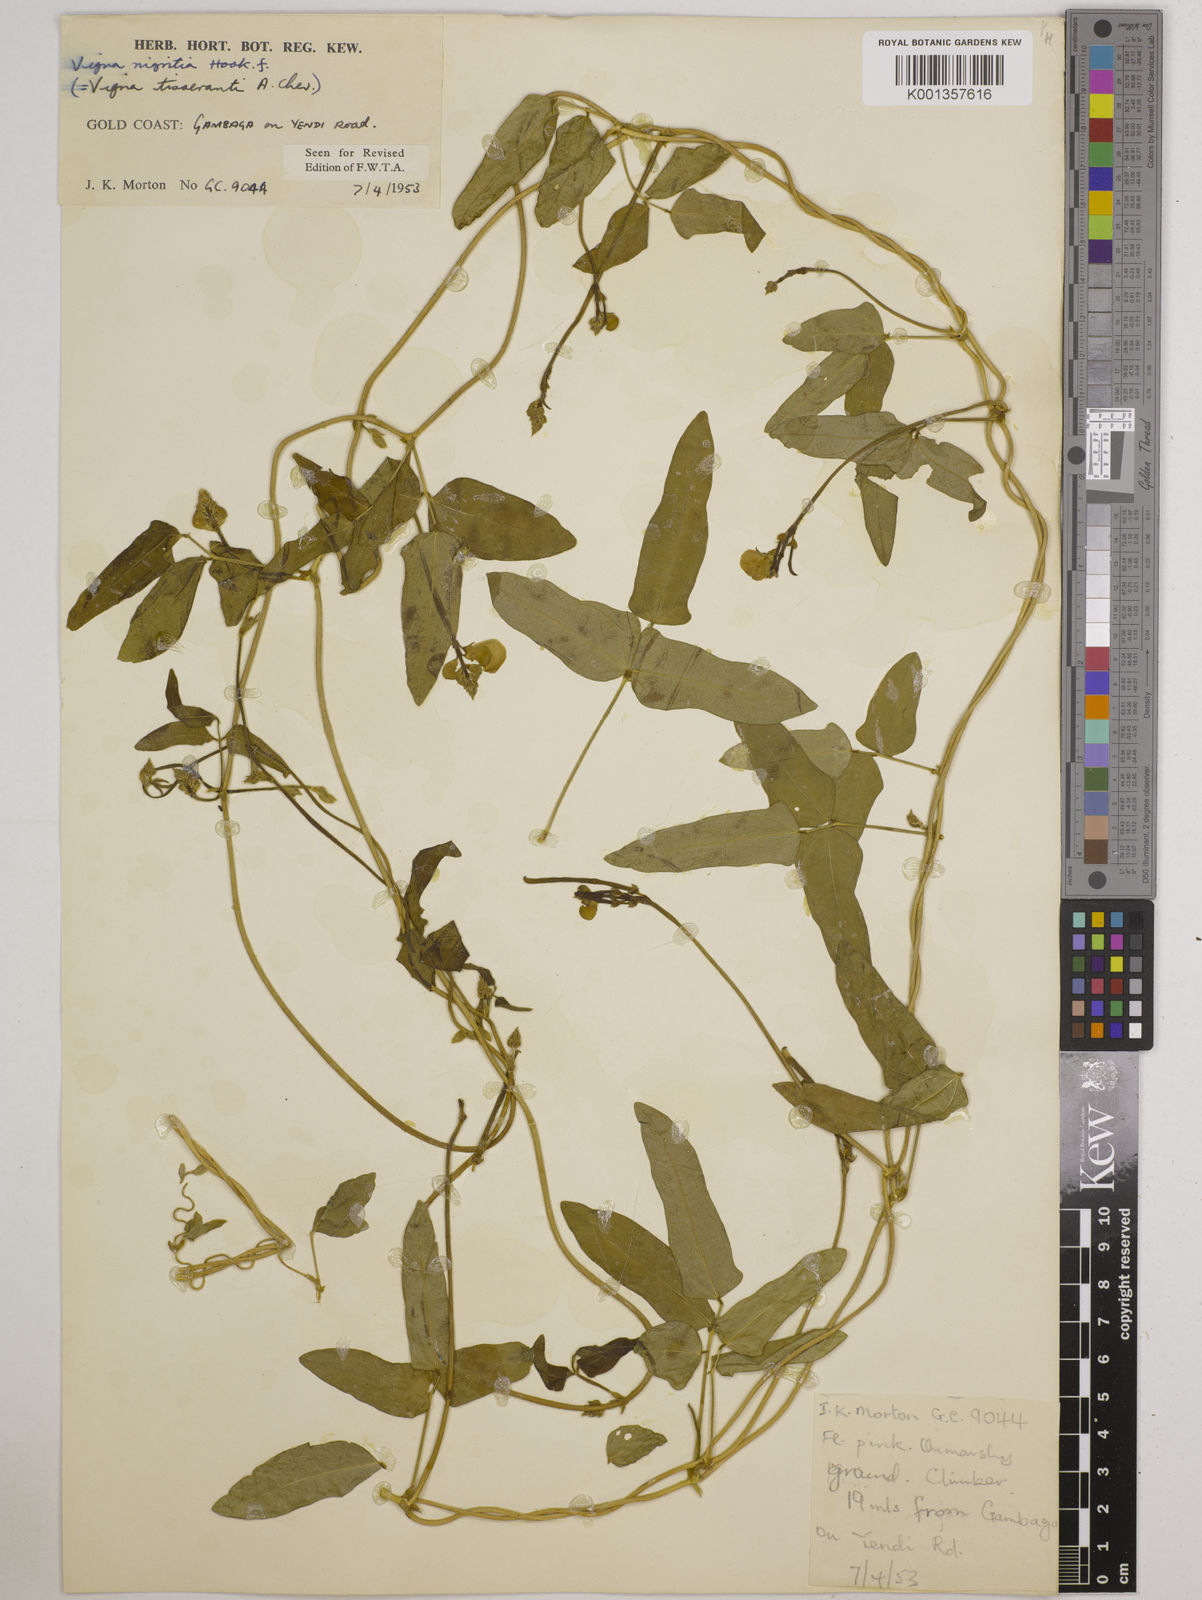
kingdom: Plantae
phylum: Tracheophyta
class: Magnoliopsida
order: Fabales
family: Fabaceae
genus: Vigna
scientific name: Vigna nigritia
